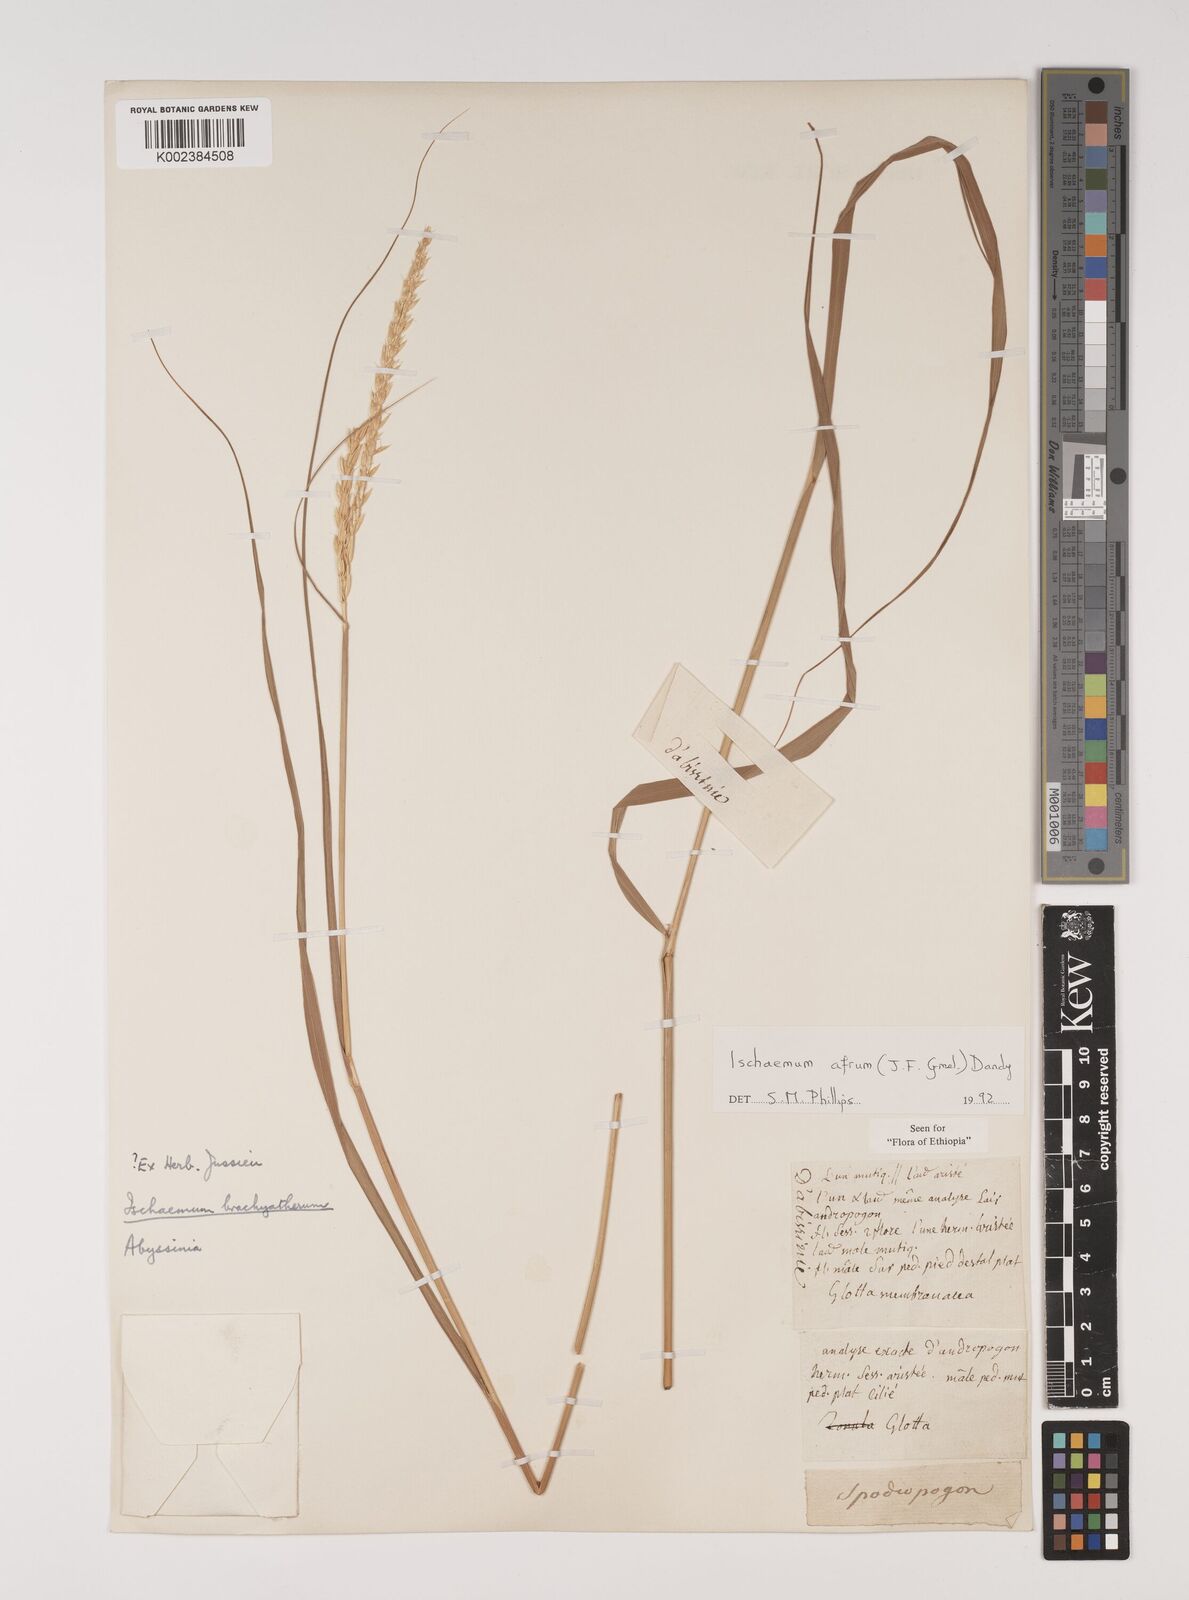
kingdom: Plantae
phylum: Tracheophyta
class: Liliopsida
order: Poales
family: Poaceae
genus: Ischaemum
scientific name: Ischaemum afrum
